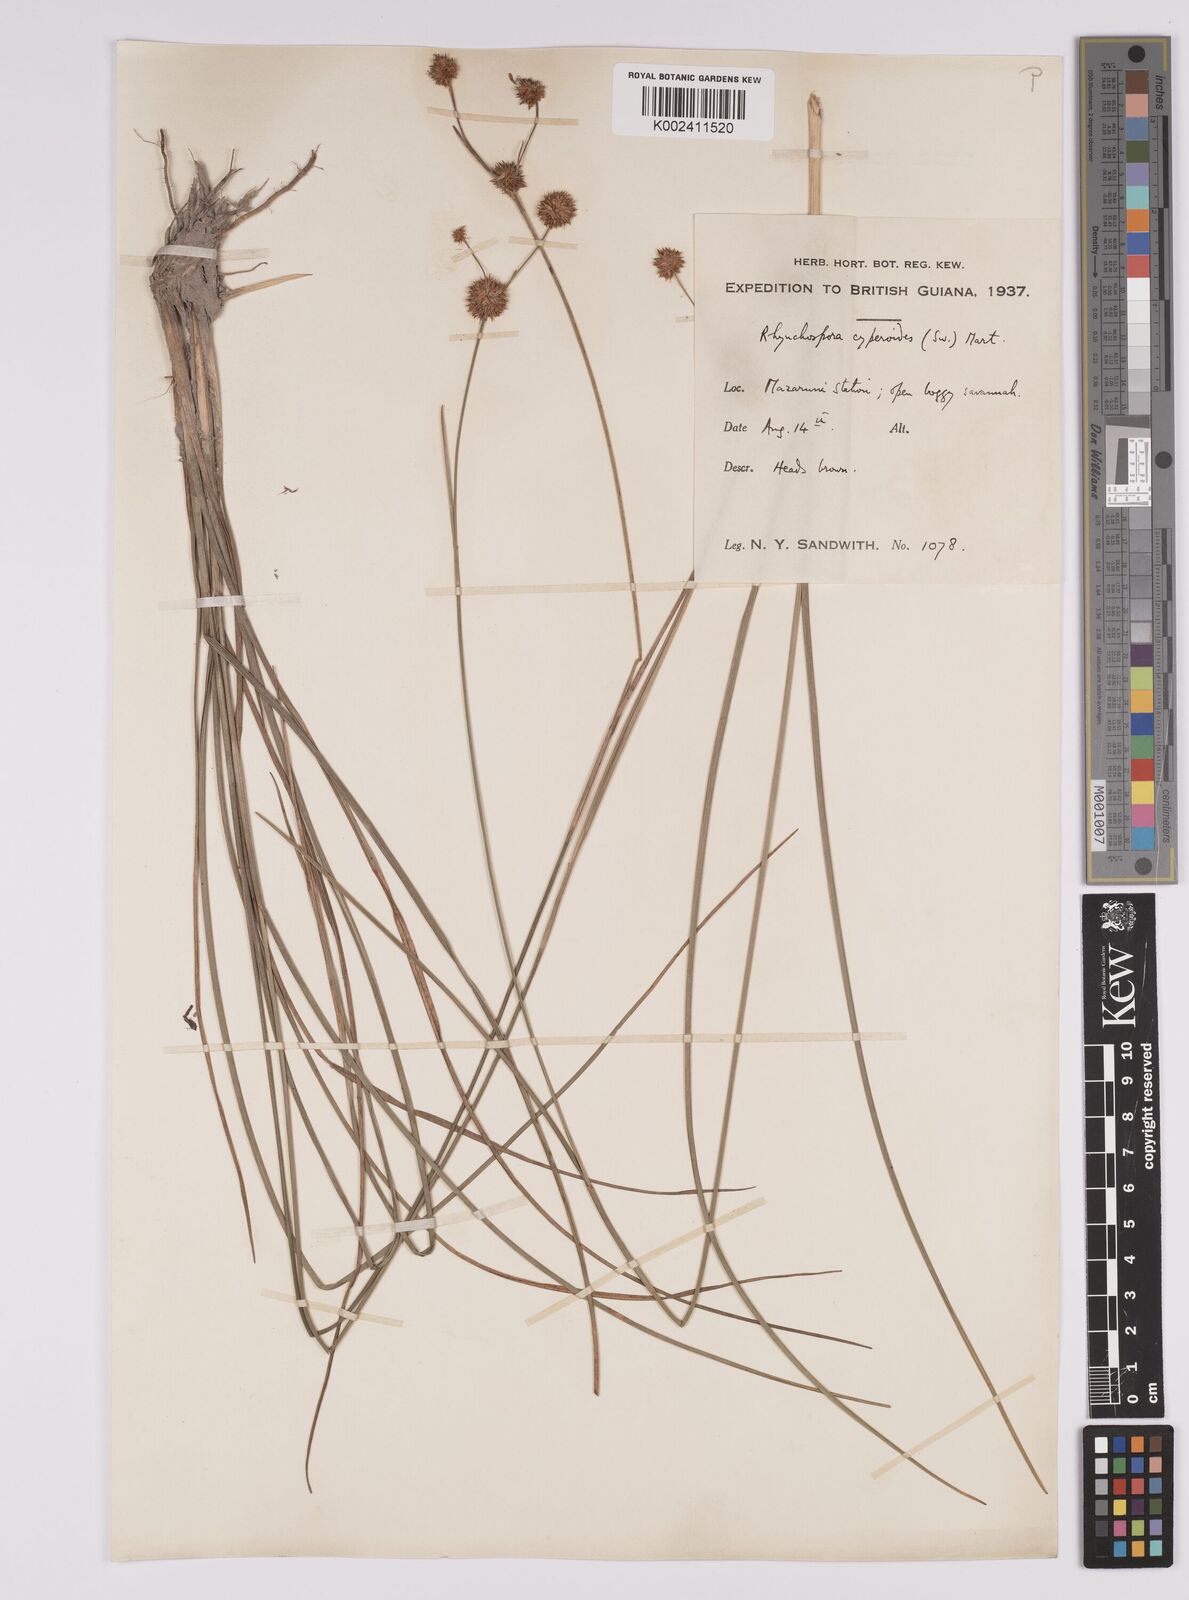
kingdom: Plantae
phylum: Tracheophyta
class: Liliopsida
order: Poales
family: Cyperaceae
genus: Rhynchospora
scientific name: Rhynchospora holoschoenoides
